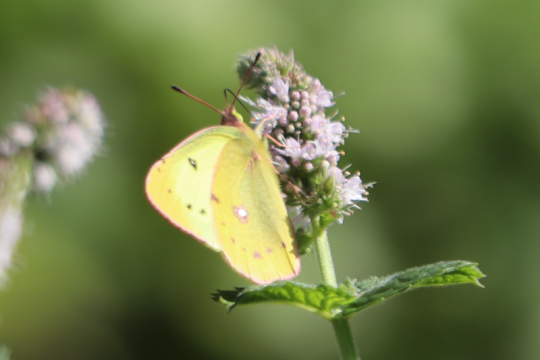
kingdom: Animalia
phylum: Arthropoda
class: Insecta
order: Lepidoptera
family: Pieridae
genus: Colias
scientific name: Colias philodice
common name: Clouded Sulphur
